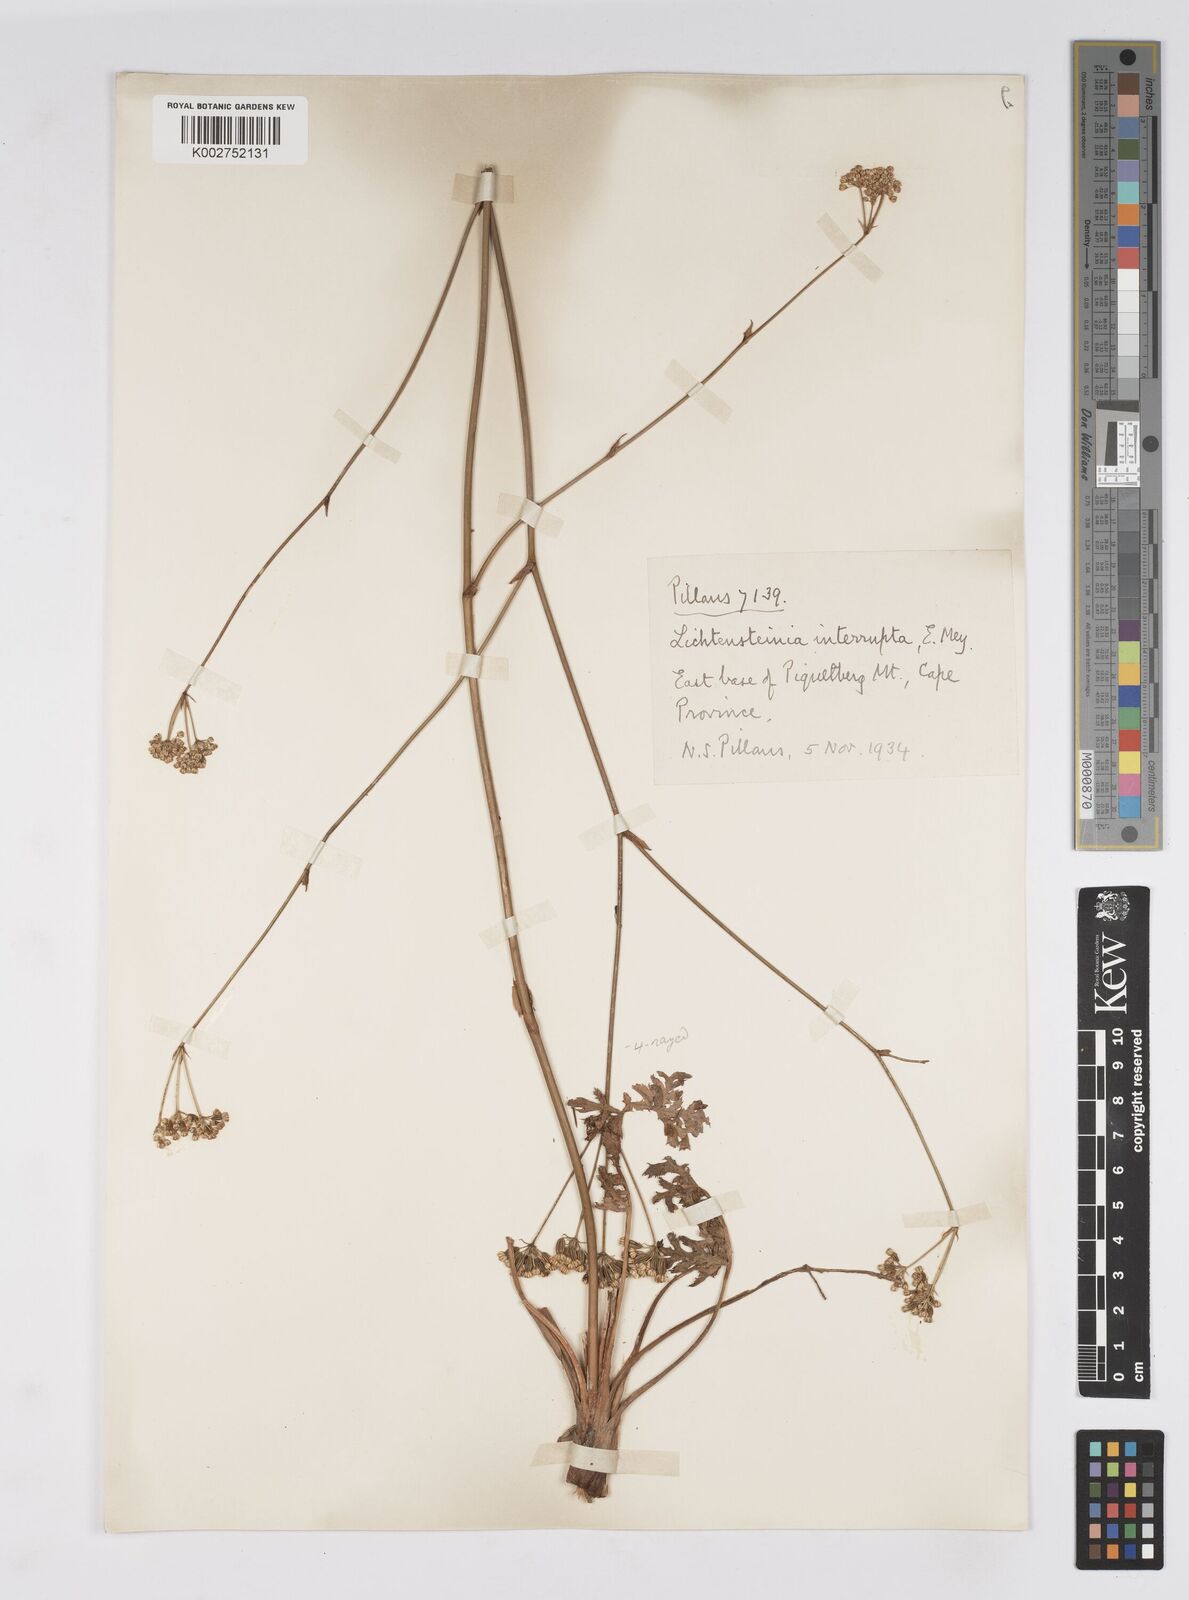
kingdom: Plantae
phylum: Tracheophyta
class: Magnoliopsida
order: Apiales
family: Apiaceae
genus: Lichtensteinia
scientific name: Lichtensteinia obscura
